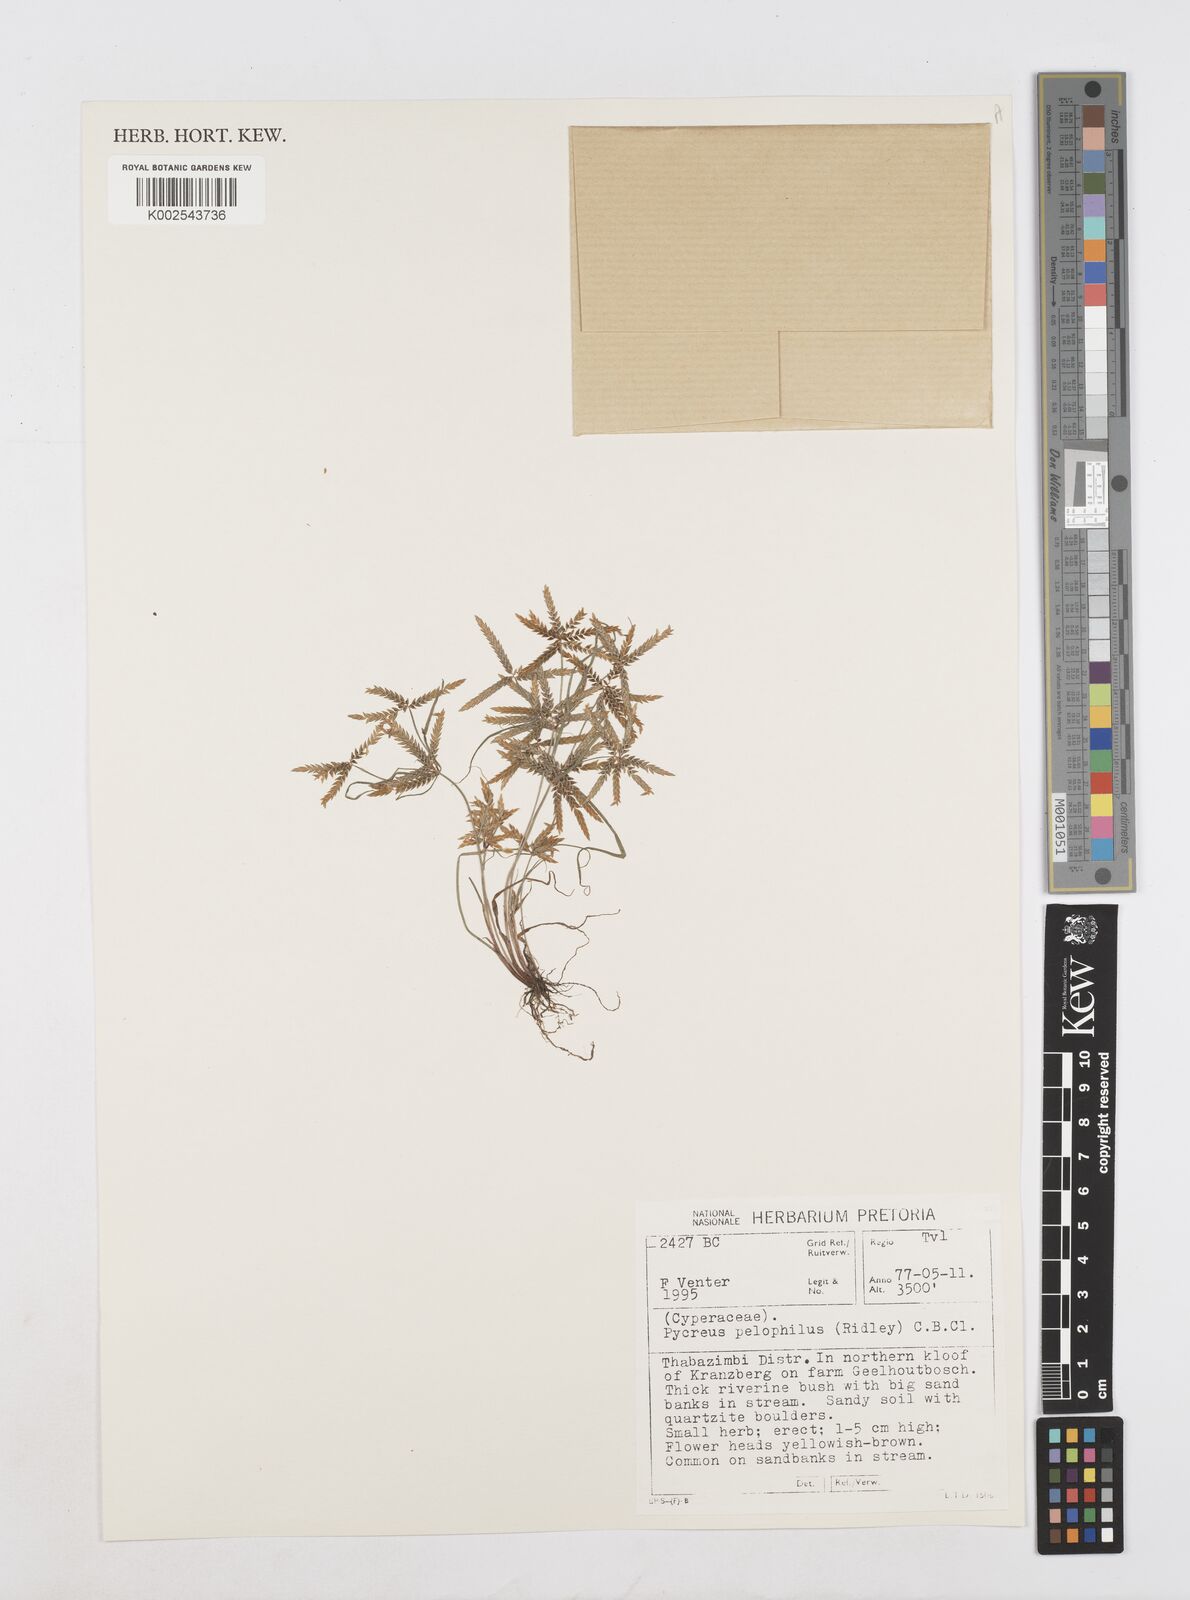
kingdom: Plantae
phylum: Tracheophyta
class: Liliopsida
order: Poales
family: Cyperaceae
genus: Cyperus
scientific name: Cyperus pelophilus
